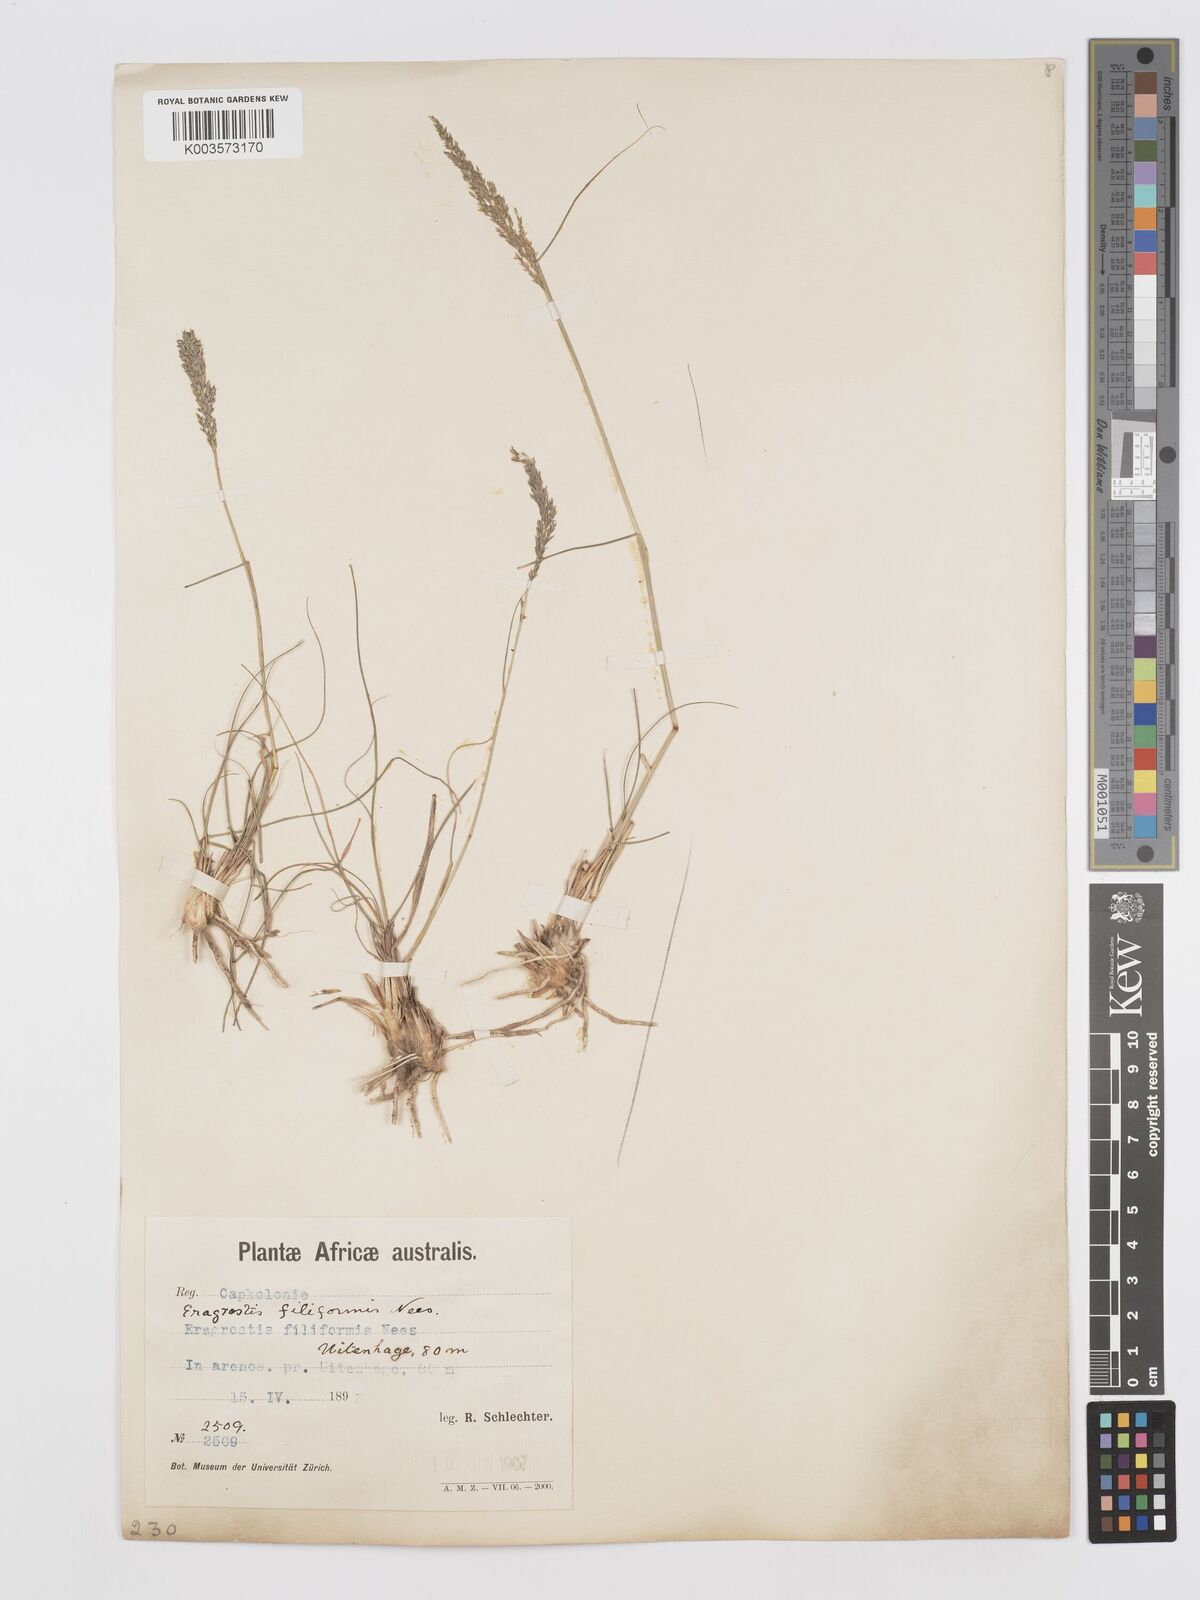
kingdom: Plantae
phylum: Tracheophyta
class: Liliopsida
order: Poales
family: Poaceae
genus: Eragrostis
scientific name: Eragrostis curvula
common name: African love-grass
